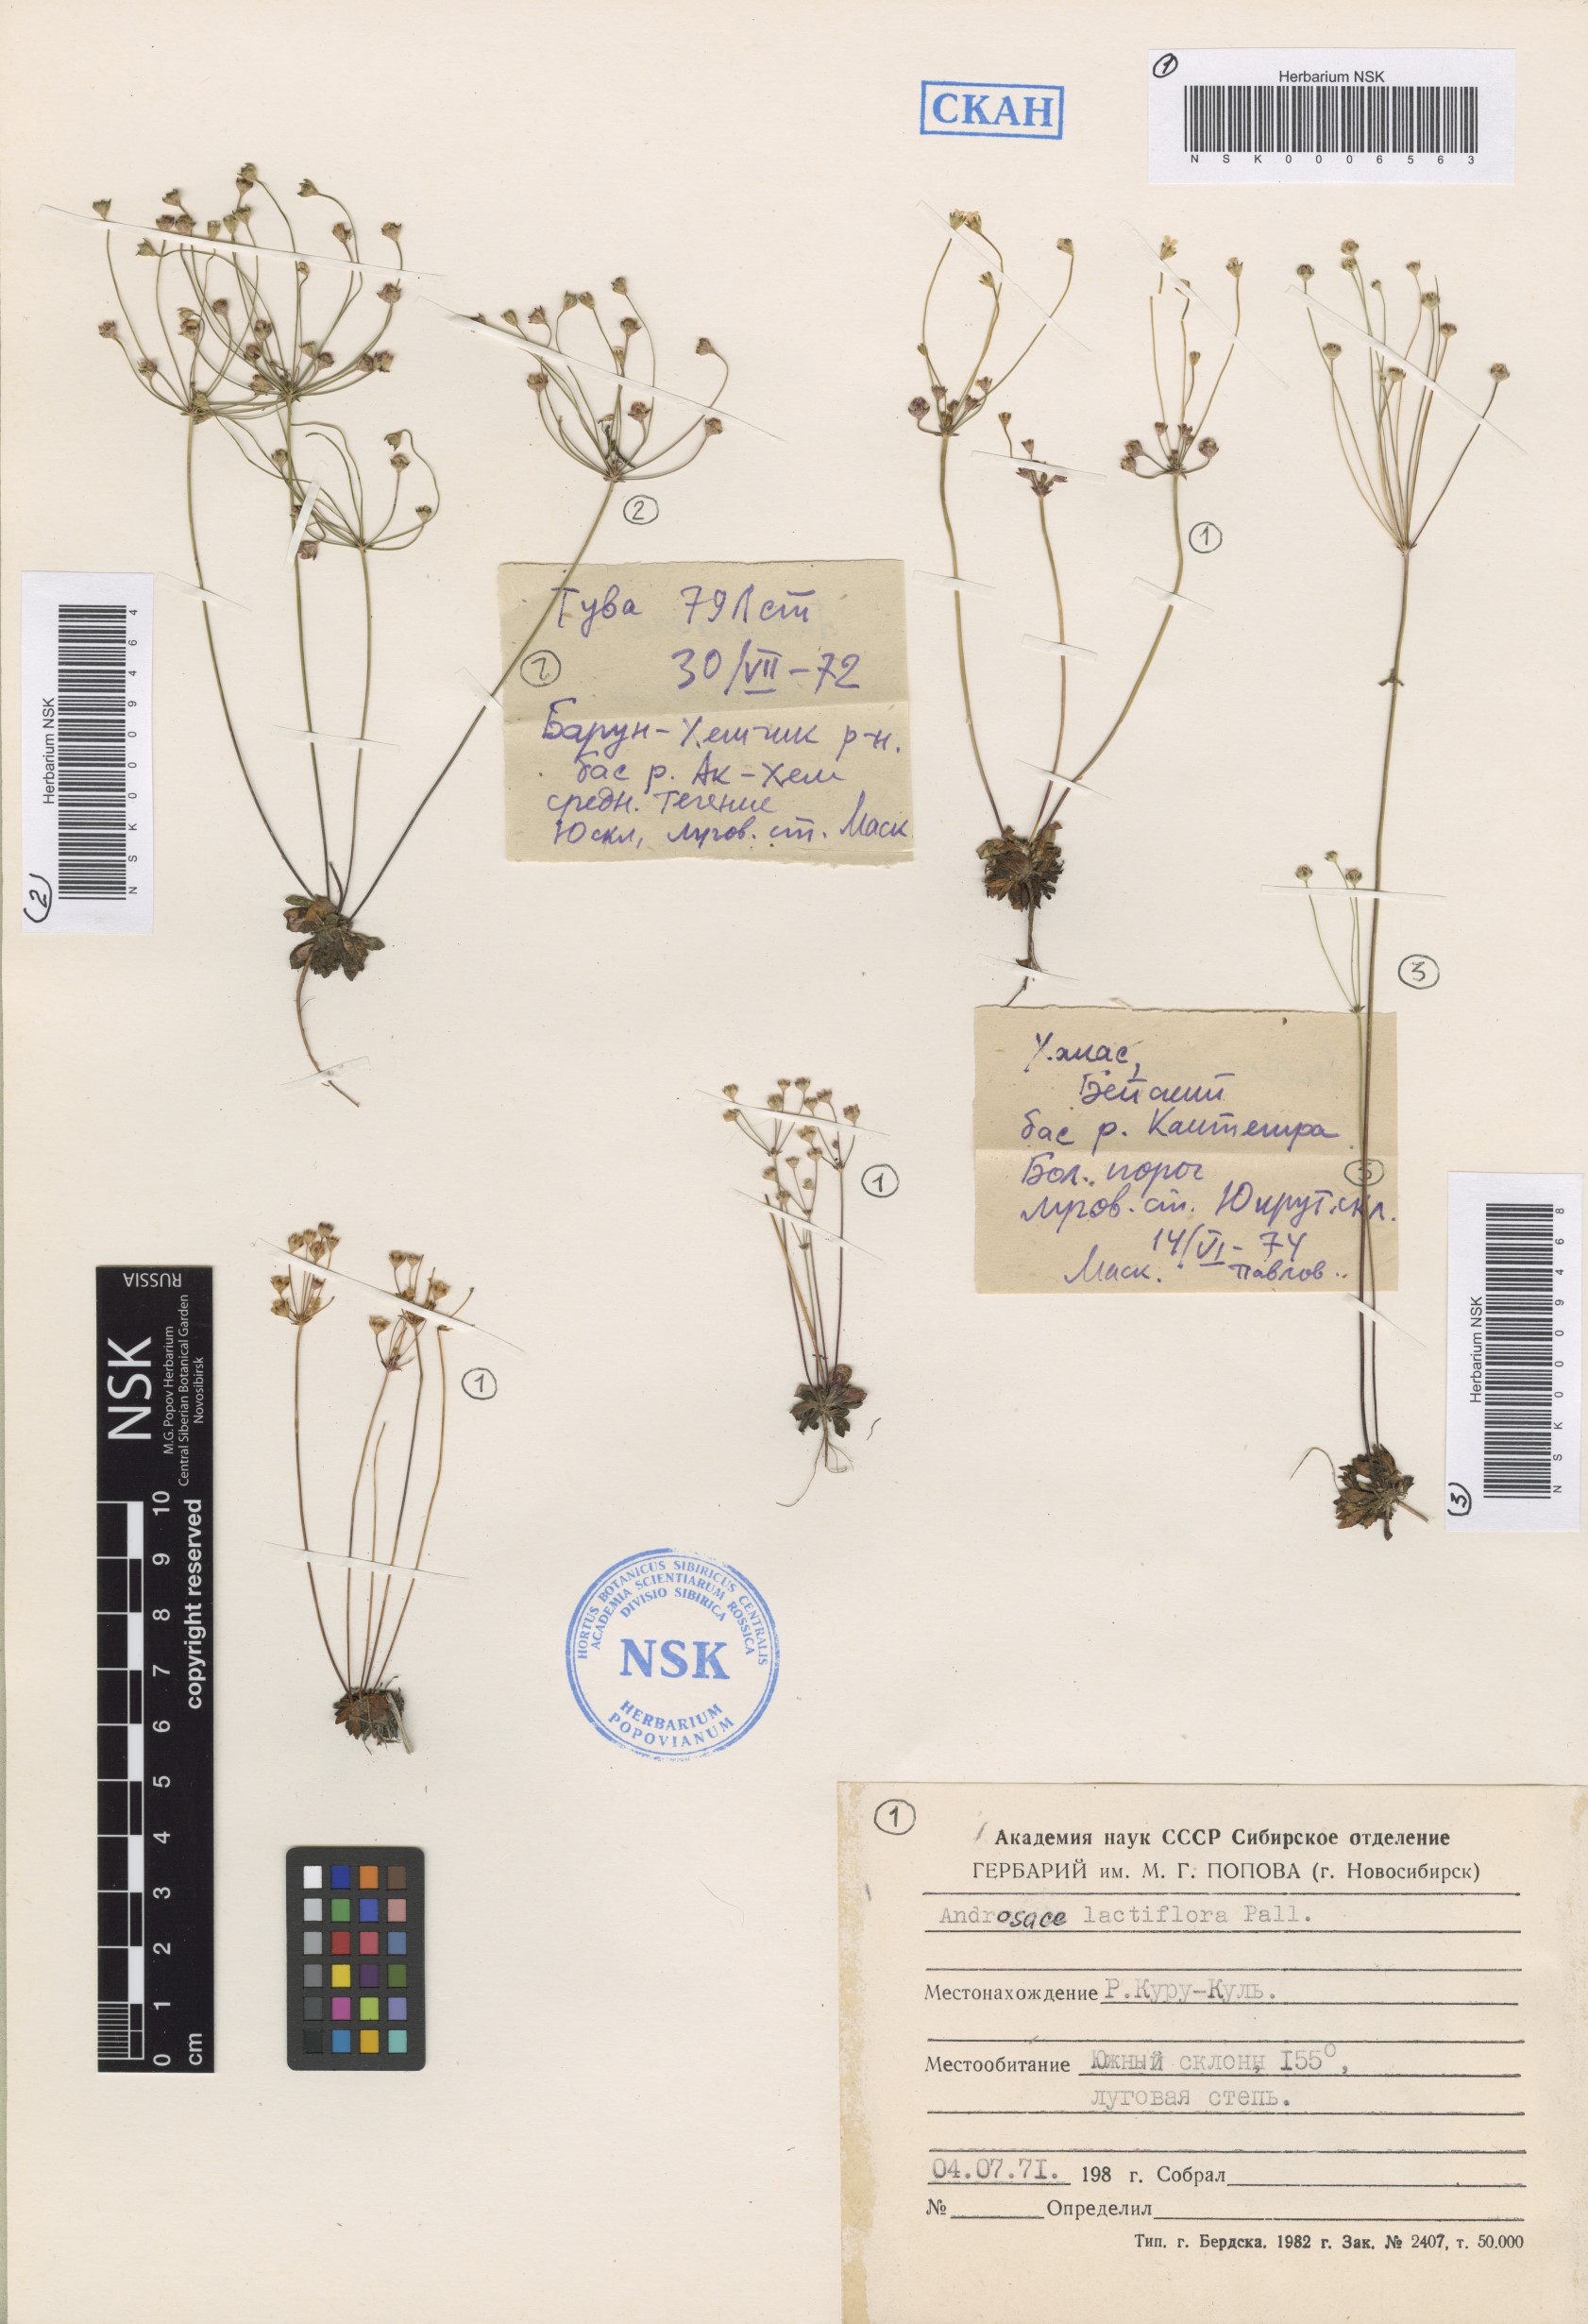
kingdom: Plantae
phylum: Tracheophyta
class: Magnoliopsida
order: Ericales
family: Primulaceae
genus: Androsace
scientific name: Androsace lactiflora
